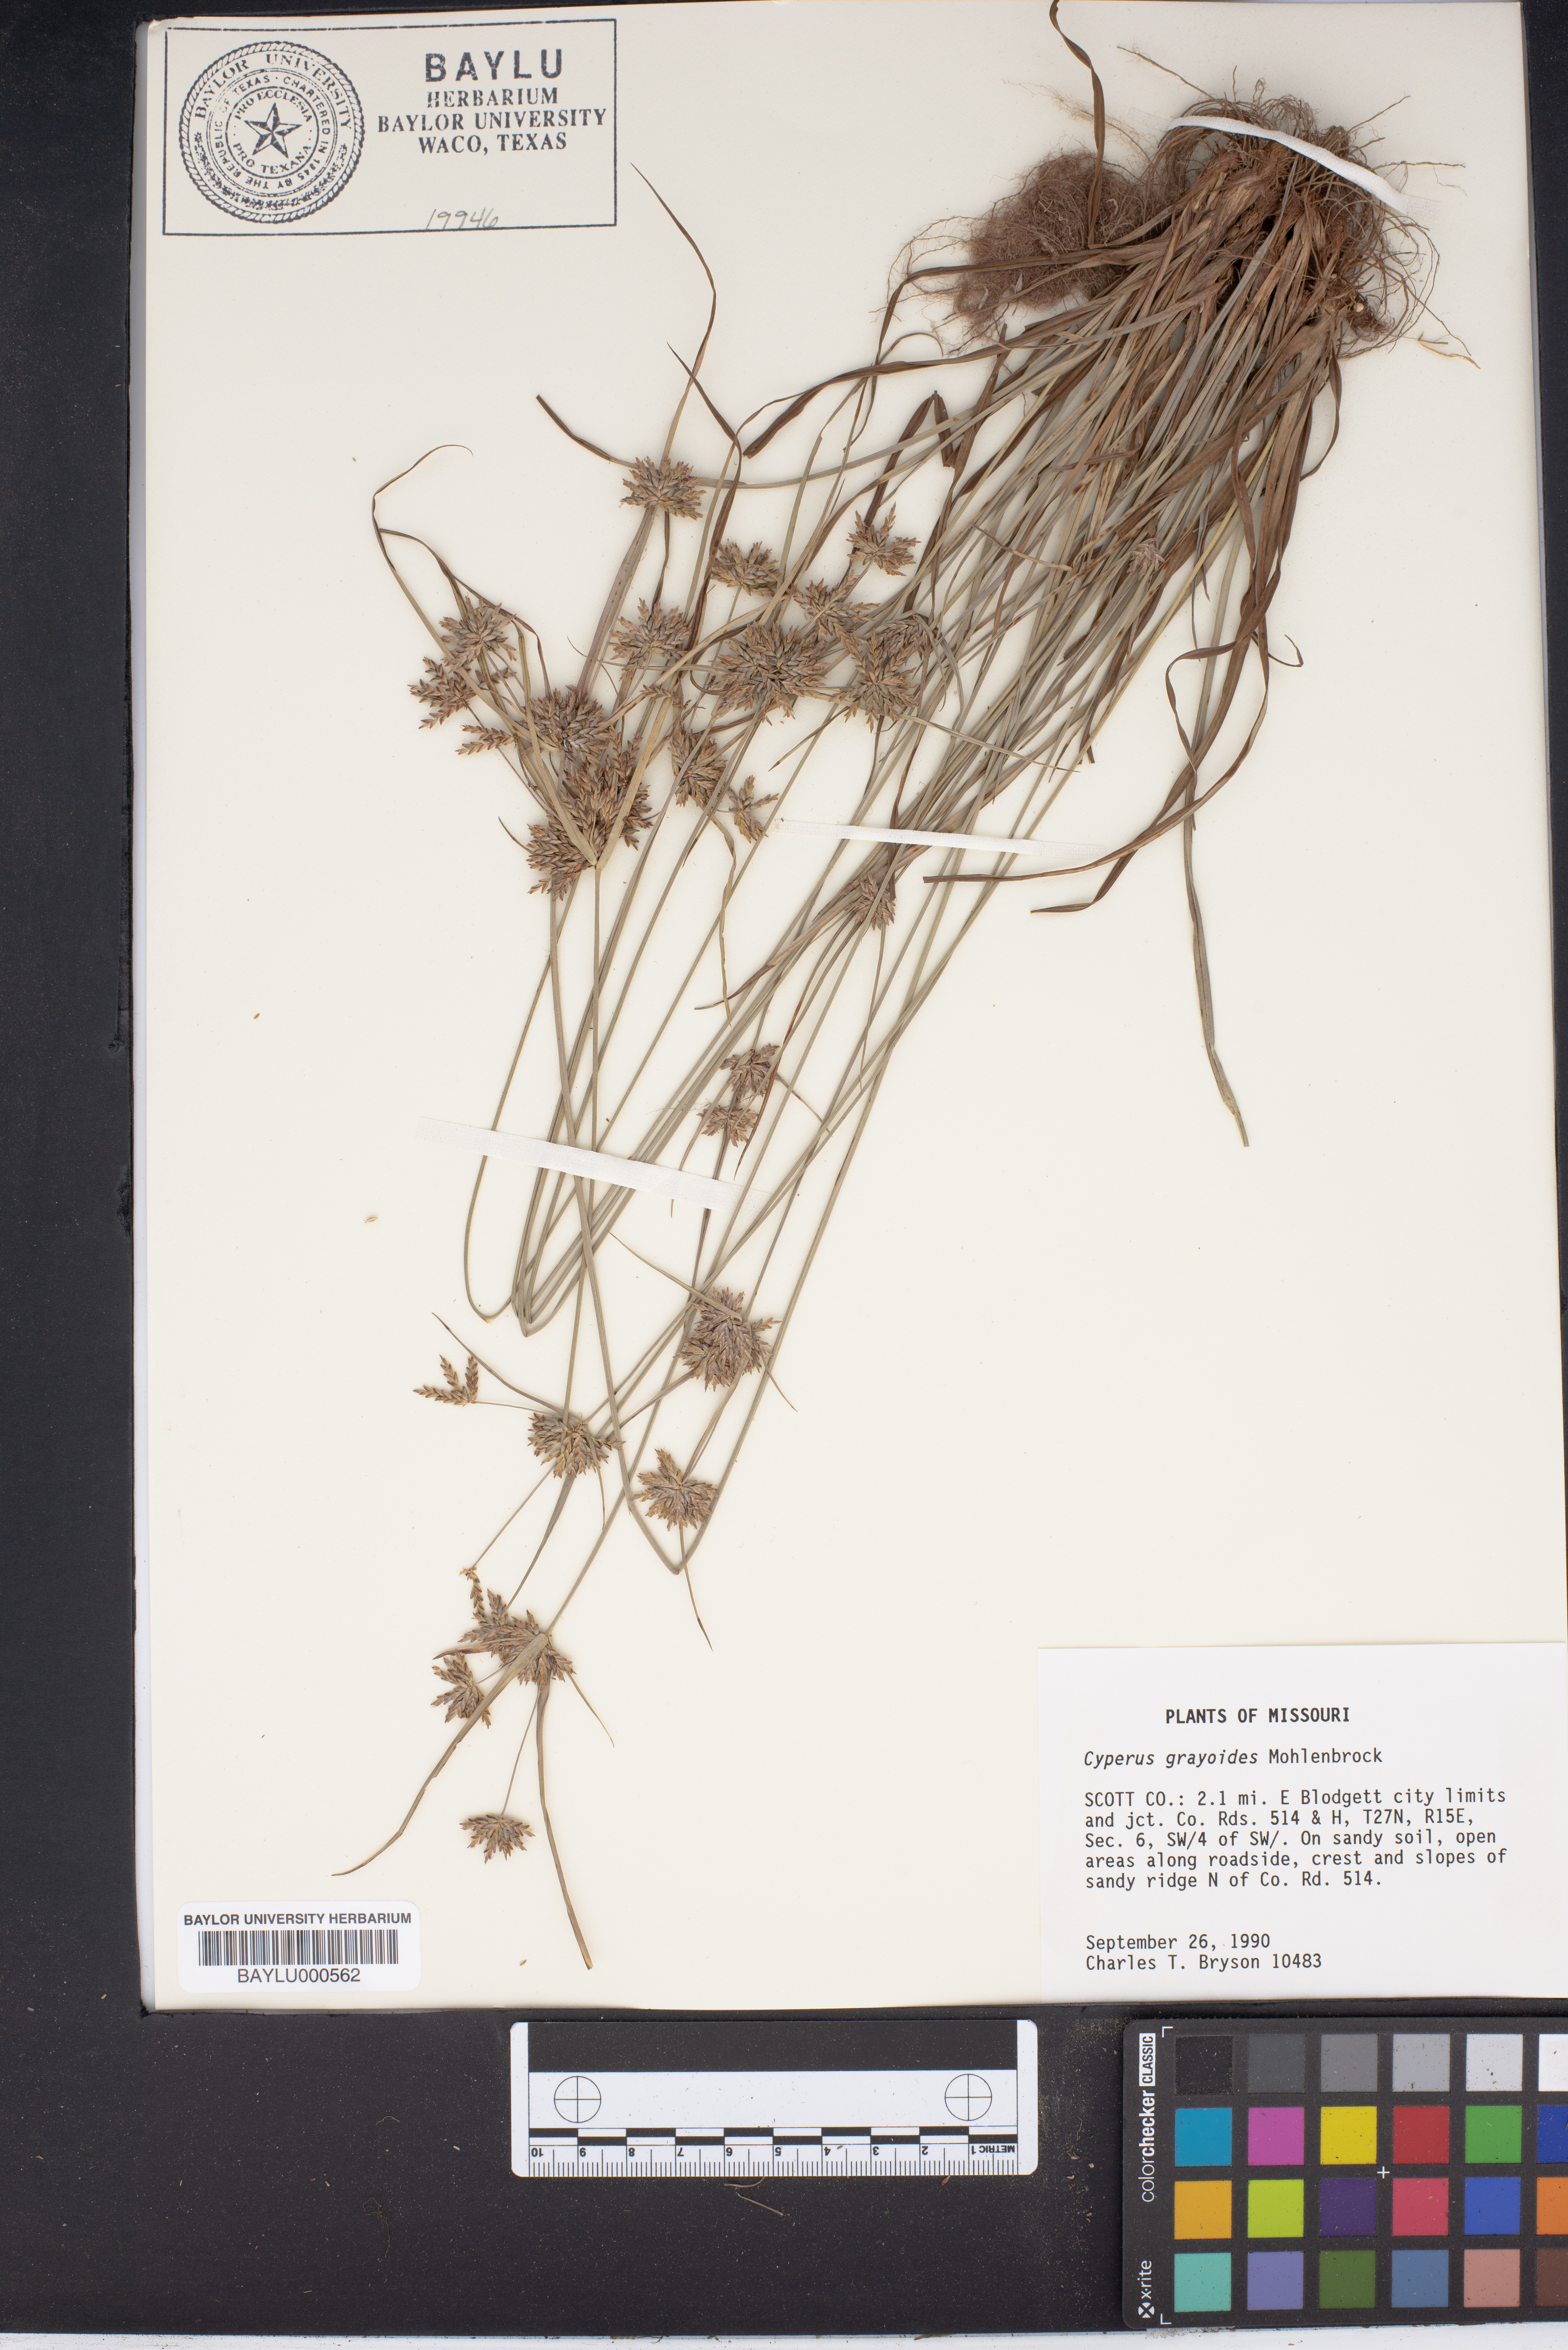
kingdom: Plantae
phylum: Tracheophyta
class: Liliopsida
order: Poales
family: Cyperaceae
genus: Cyperus
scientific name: Cyperus grayioides
